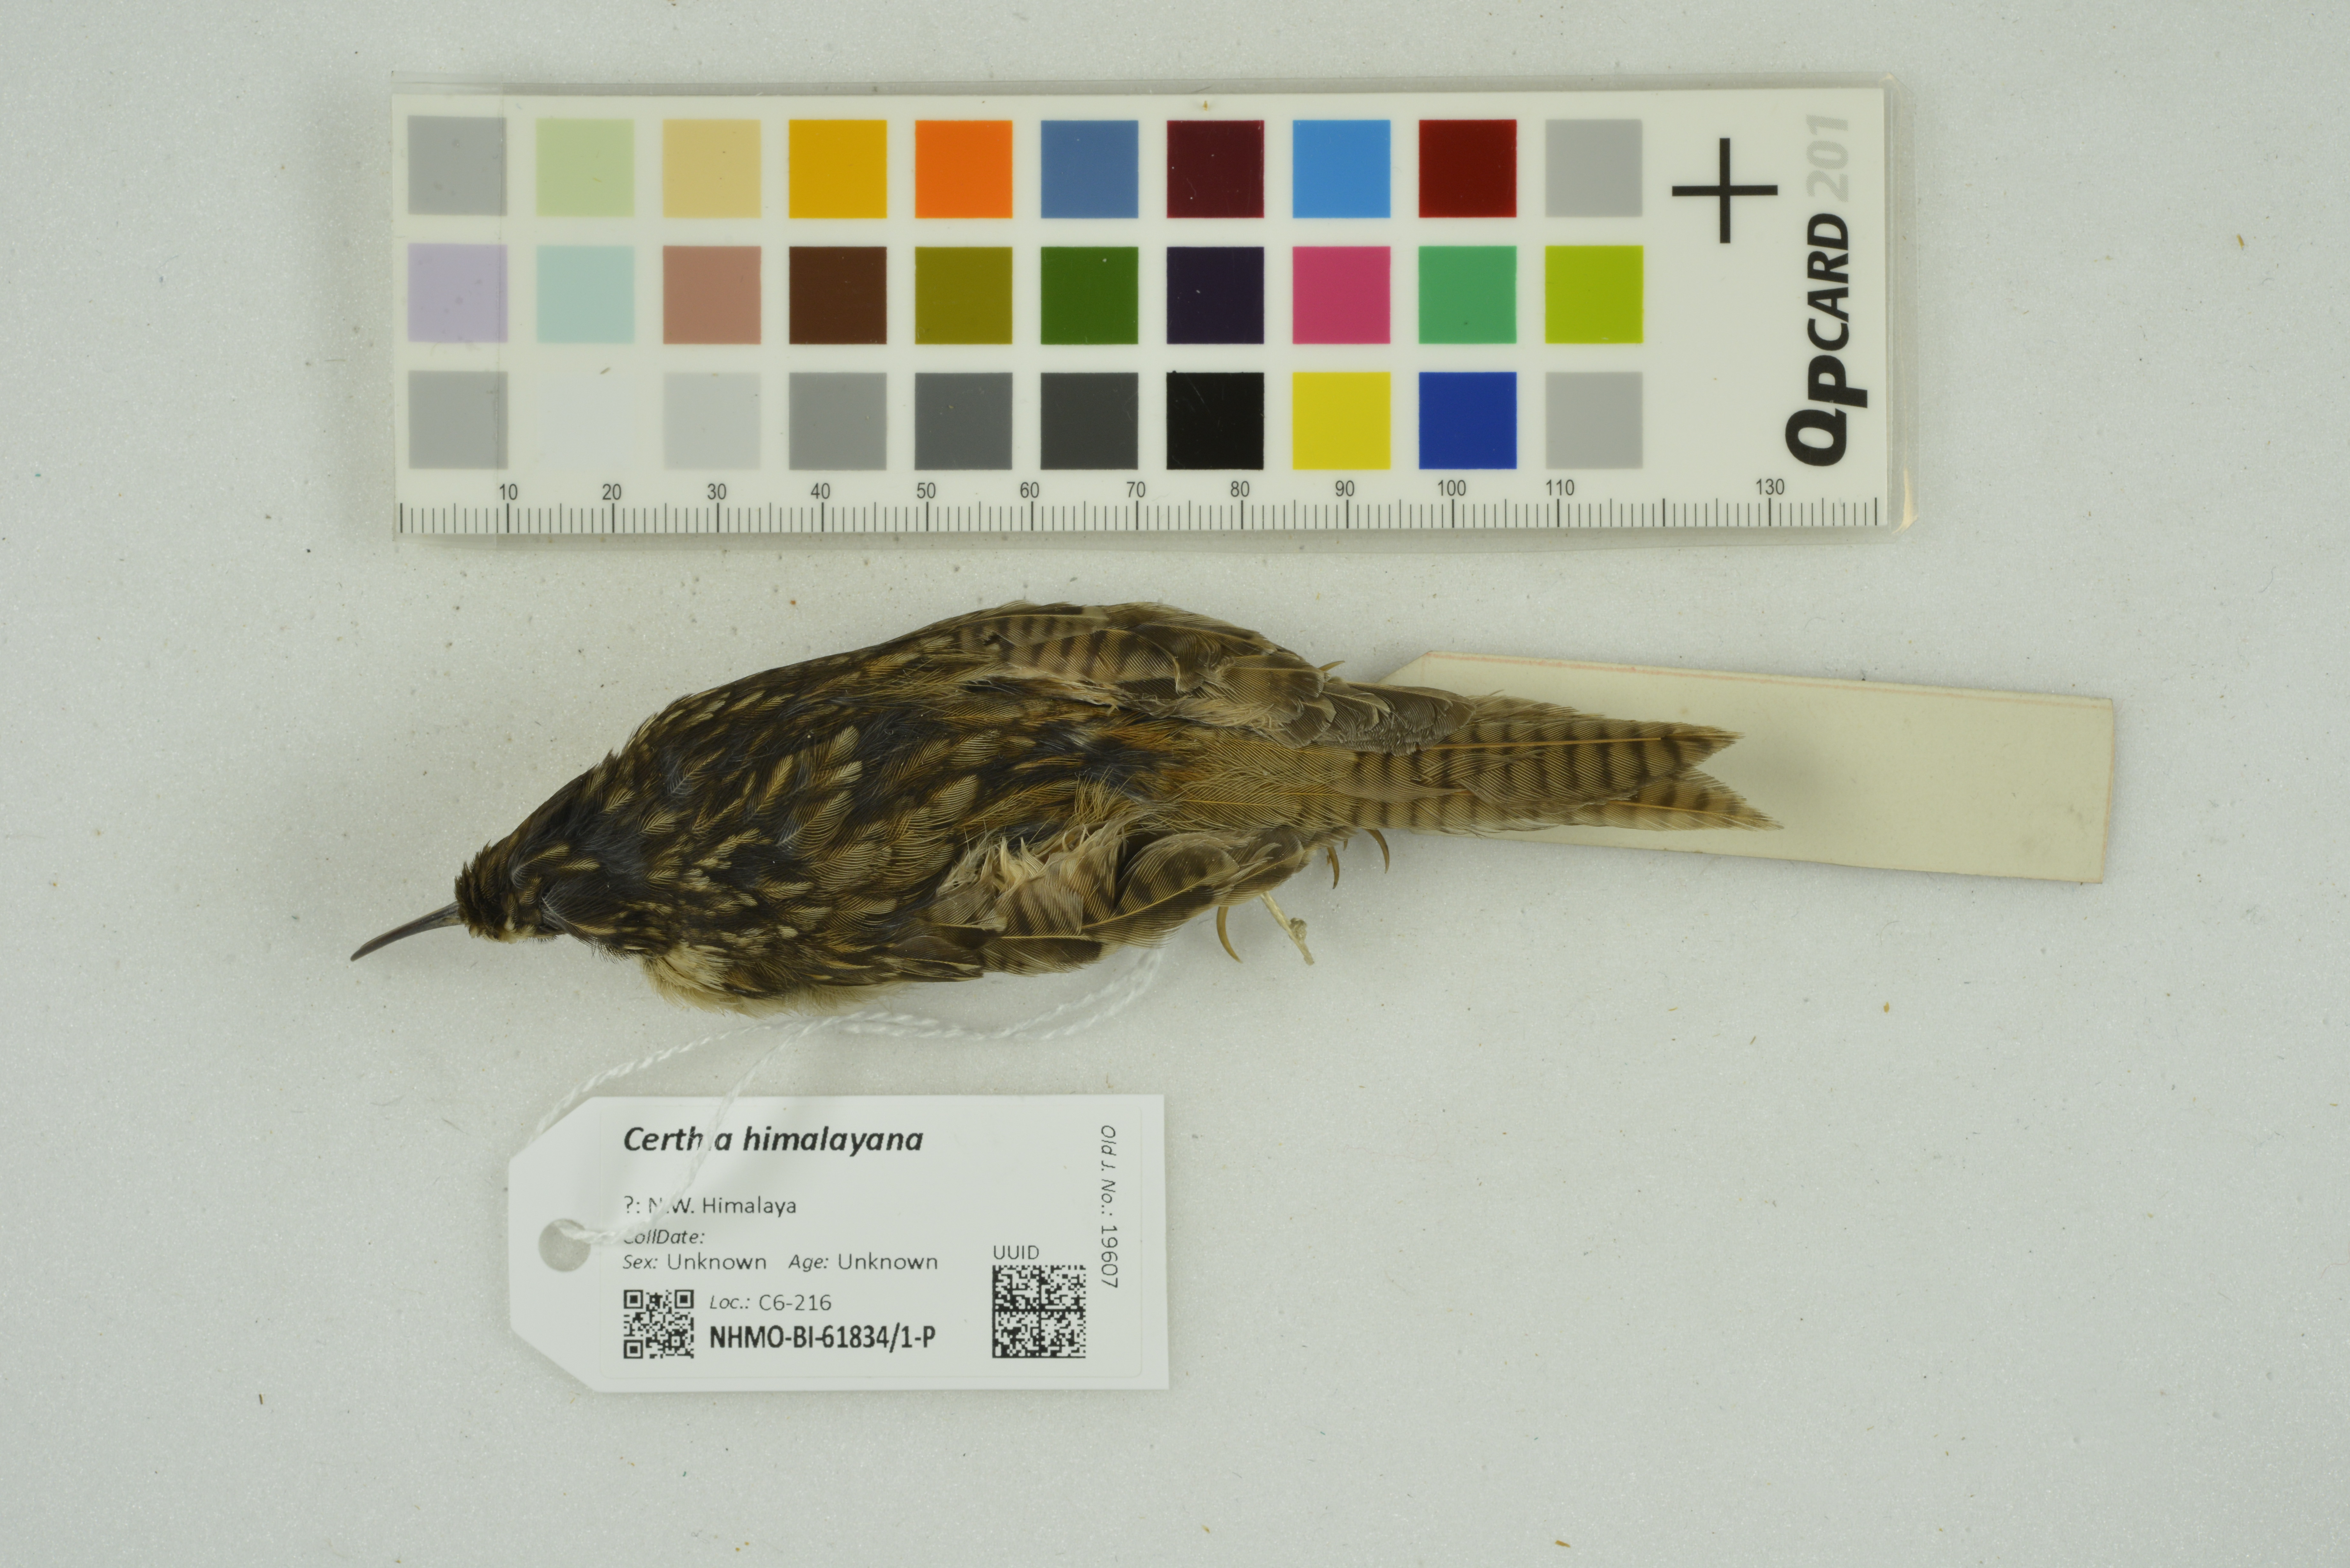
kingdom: Animalia
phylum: Chordata
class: Aves
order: Passeriformes
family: Certhiidae
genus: Certhia
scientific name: Certhia himalayana
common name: Bar-tailed treecreeper
